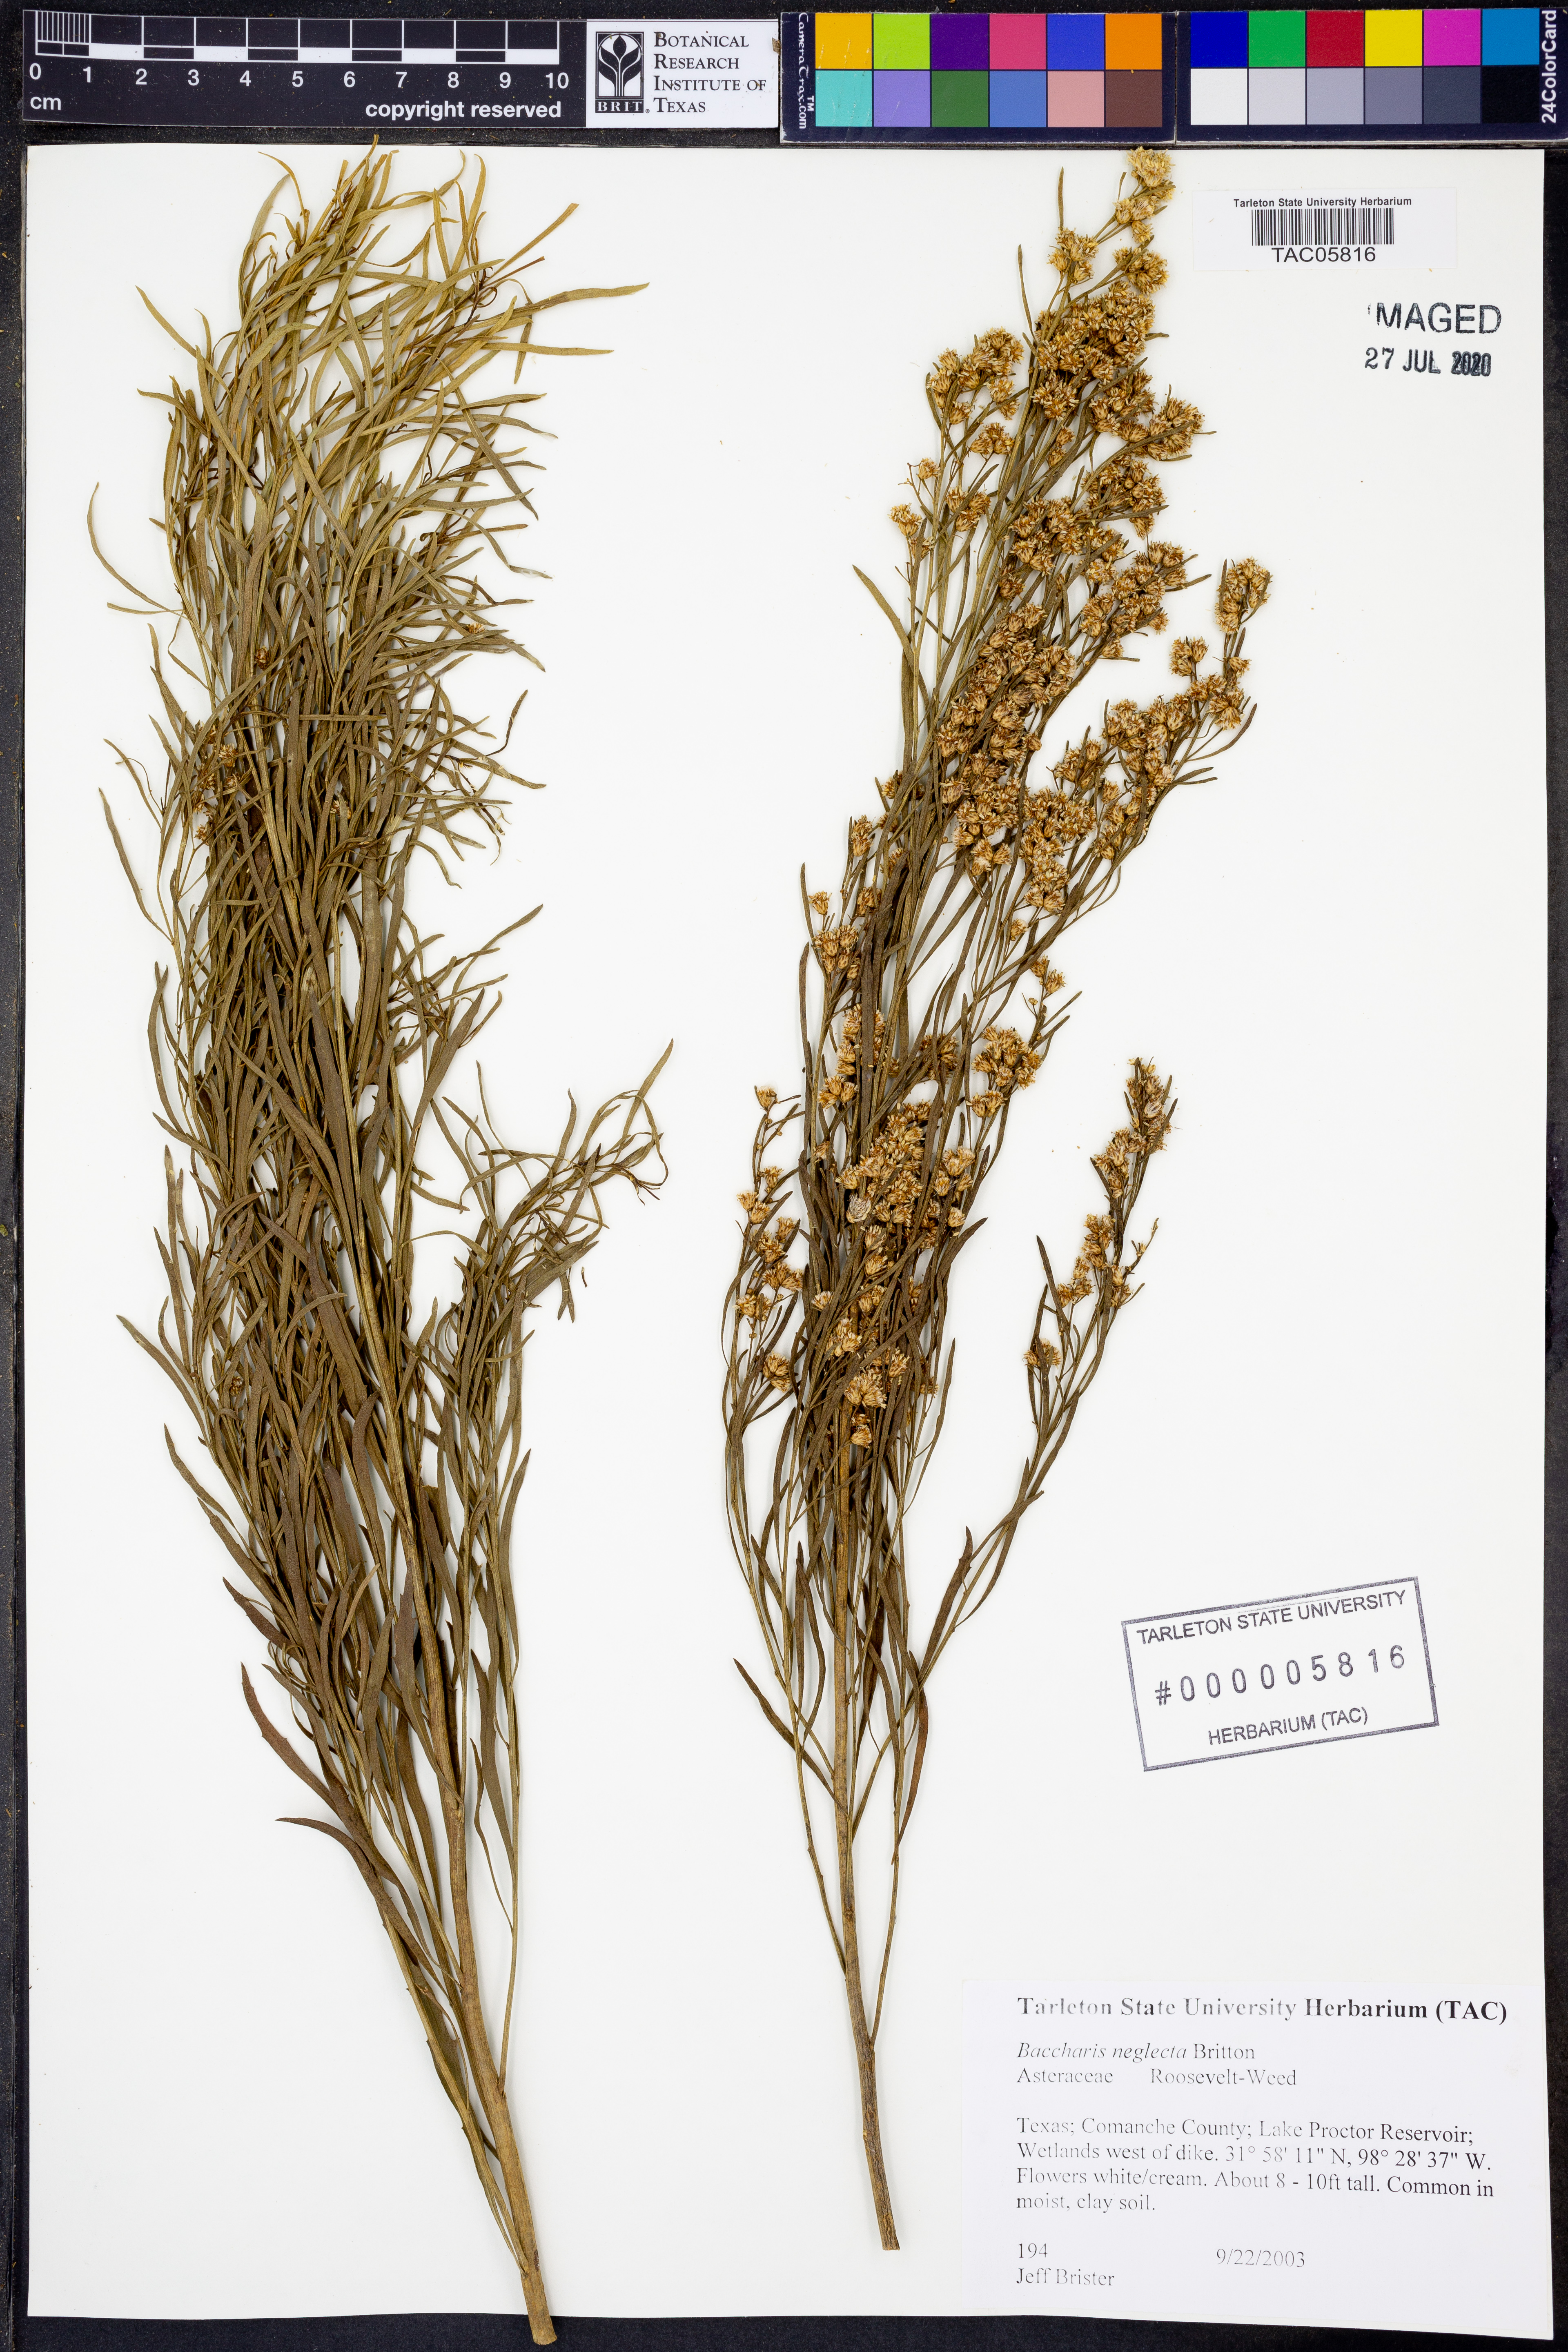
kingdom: Plantae
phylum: Tracheophyta
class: Magnoliopsida
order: Asterales
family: Asteraceae
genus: Baccharis
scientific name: Baccharis neglecta
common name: Roosevelt-weed
